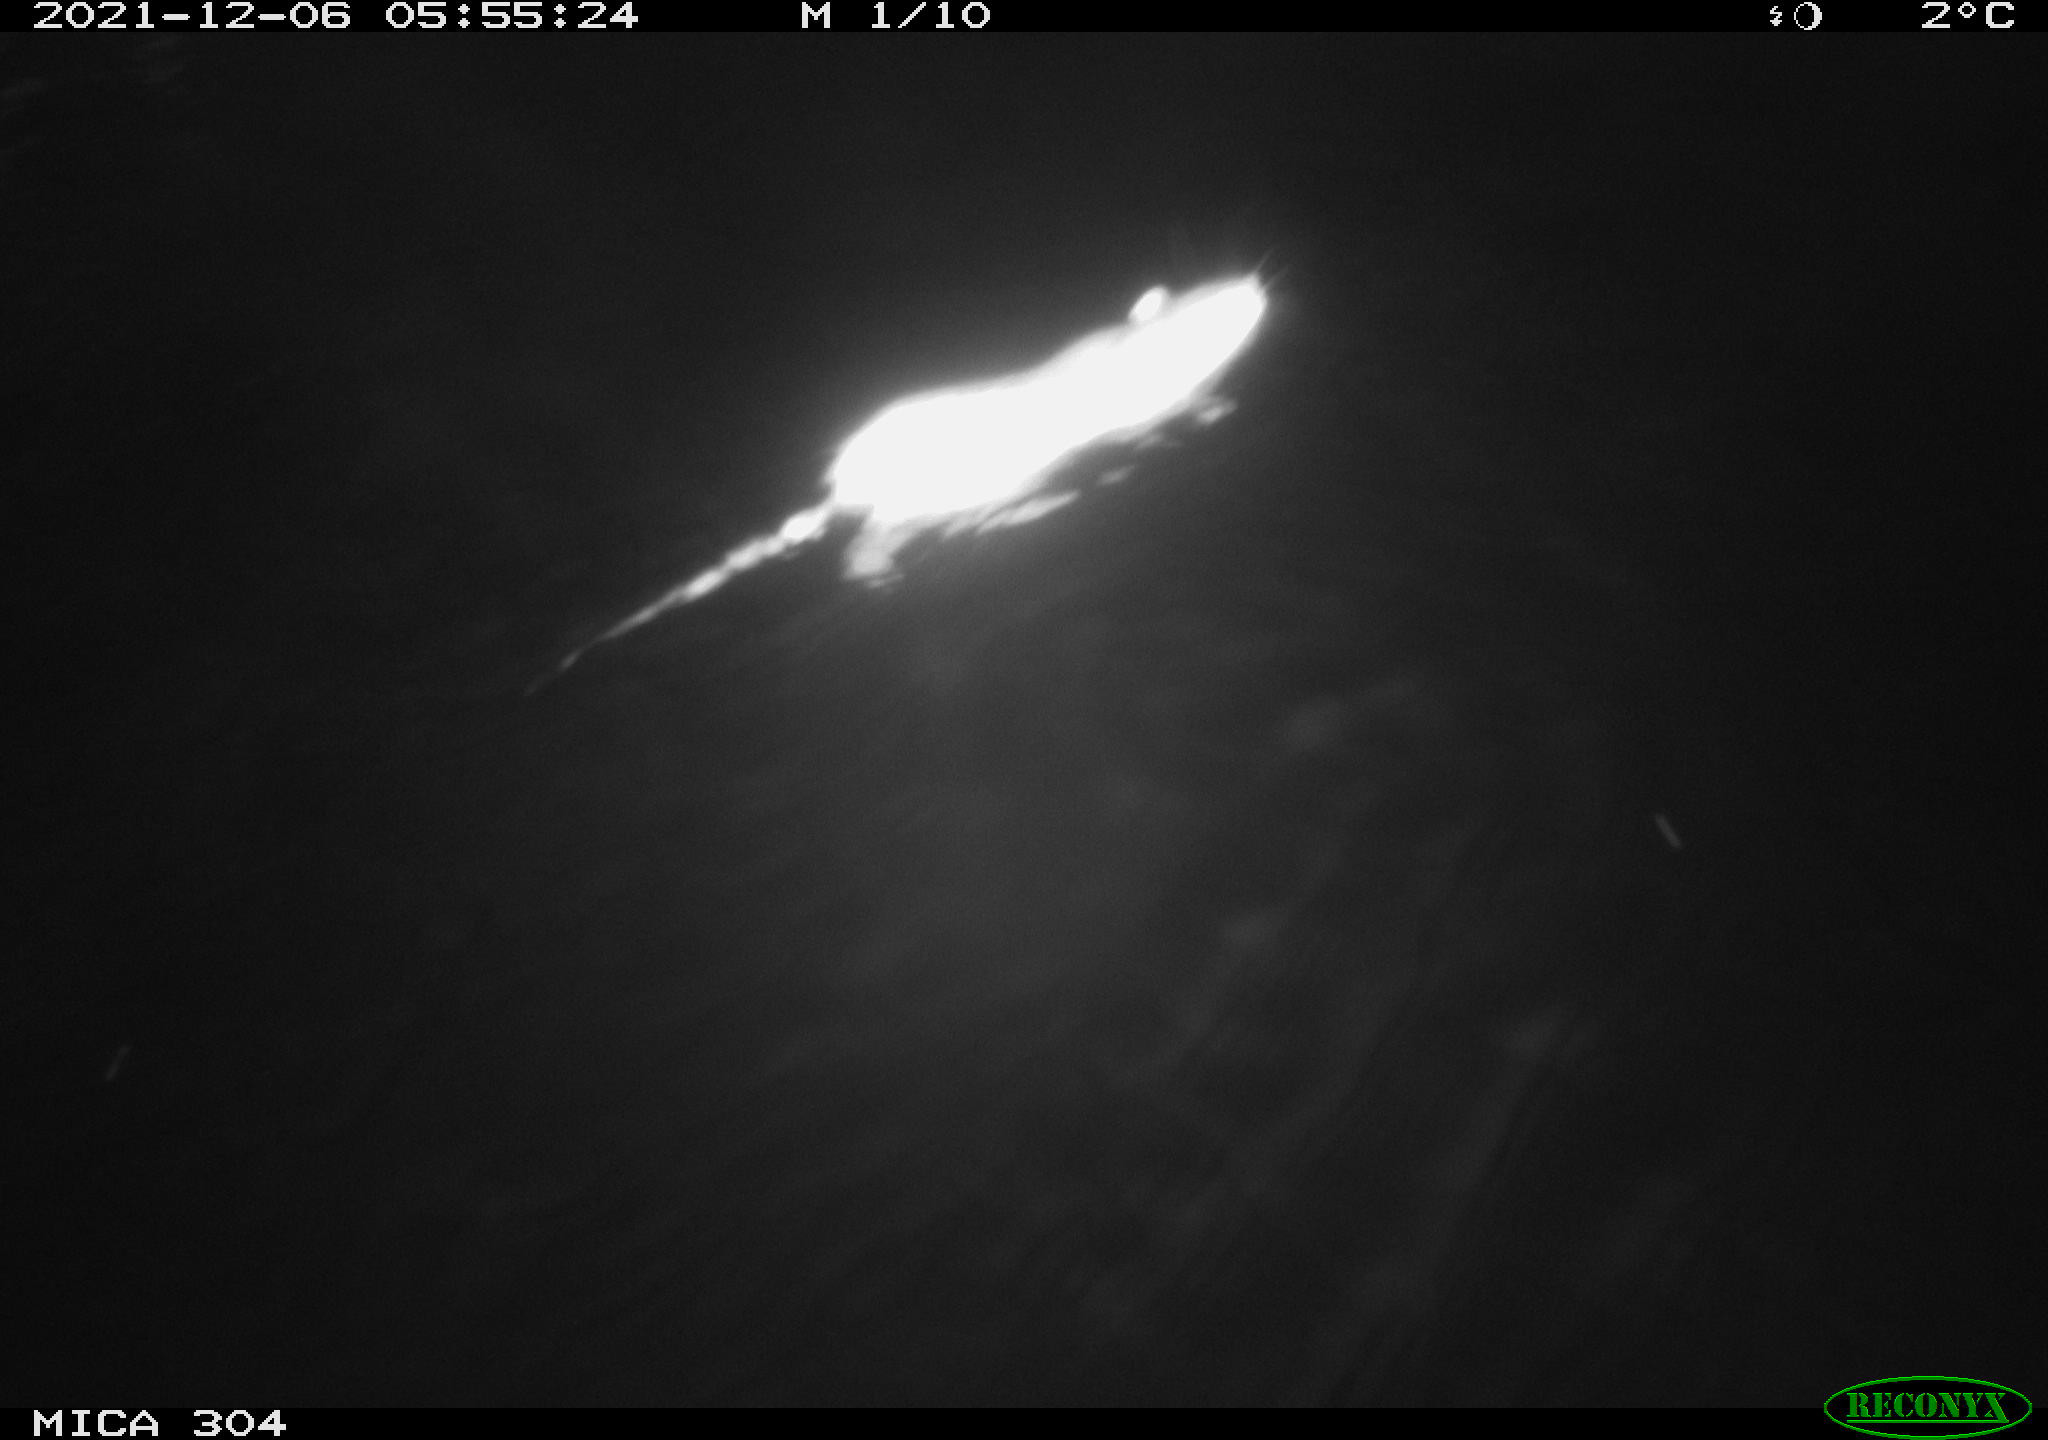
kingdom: Animalia
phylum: Chordata
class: Mammalia
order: Rodentia
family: Muridae
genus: Rattus
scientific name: Rattus norvegicus
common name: Brown rat
